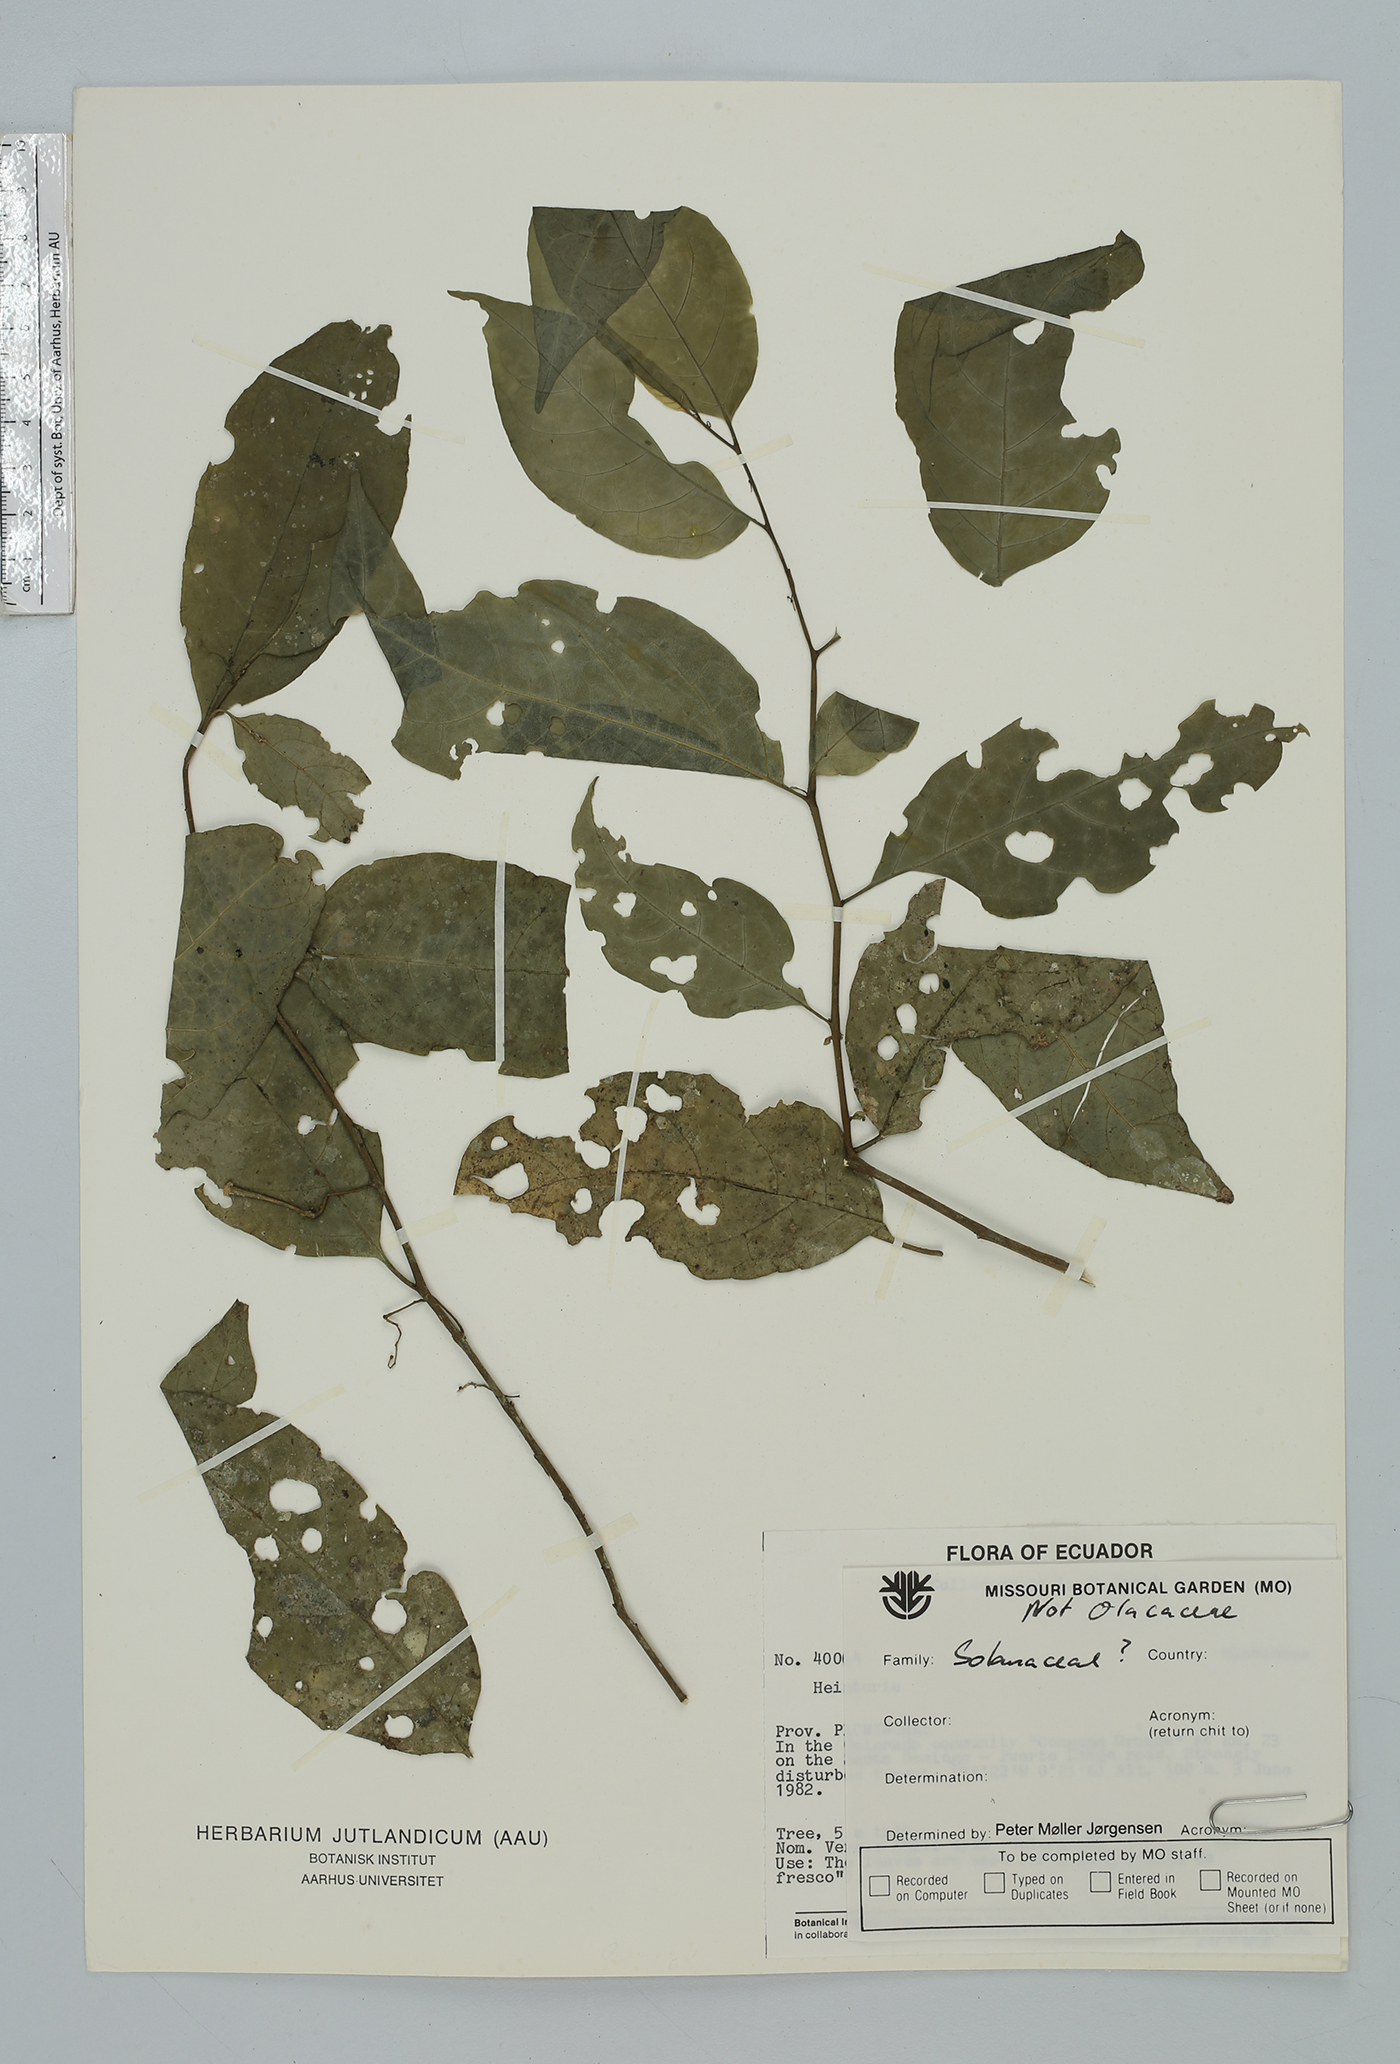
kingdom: Plantae
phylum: Tracheophyta
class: Magnoliopsida
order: Solanales
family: Solanaceae
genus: Solanum
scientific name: Solanum morellifolium
